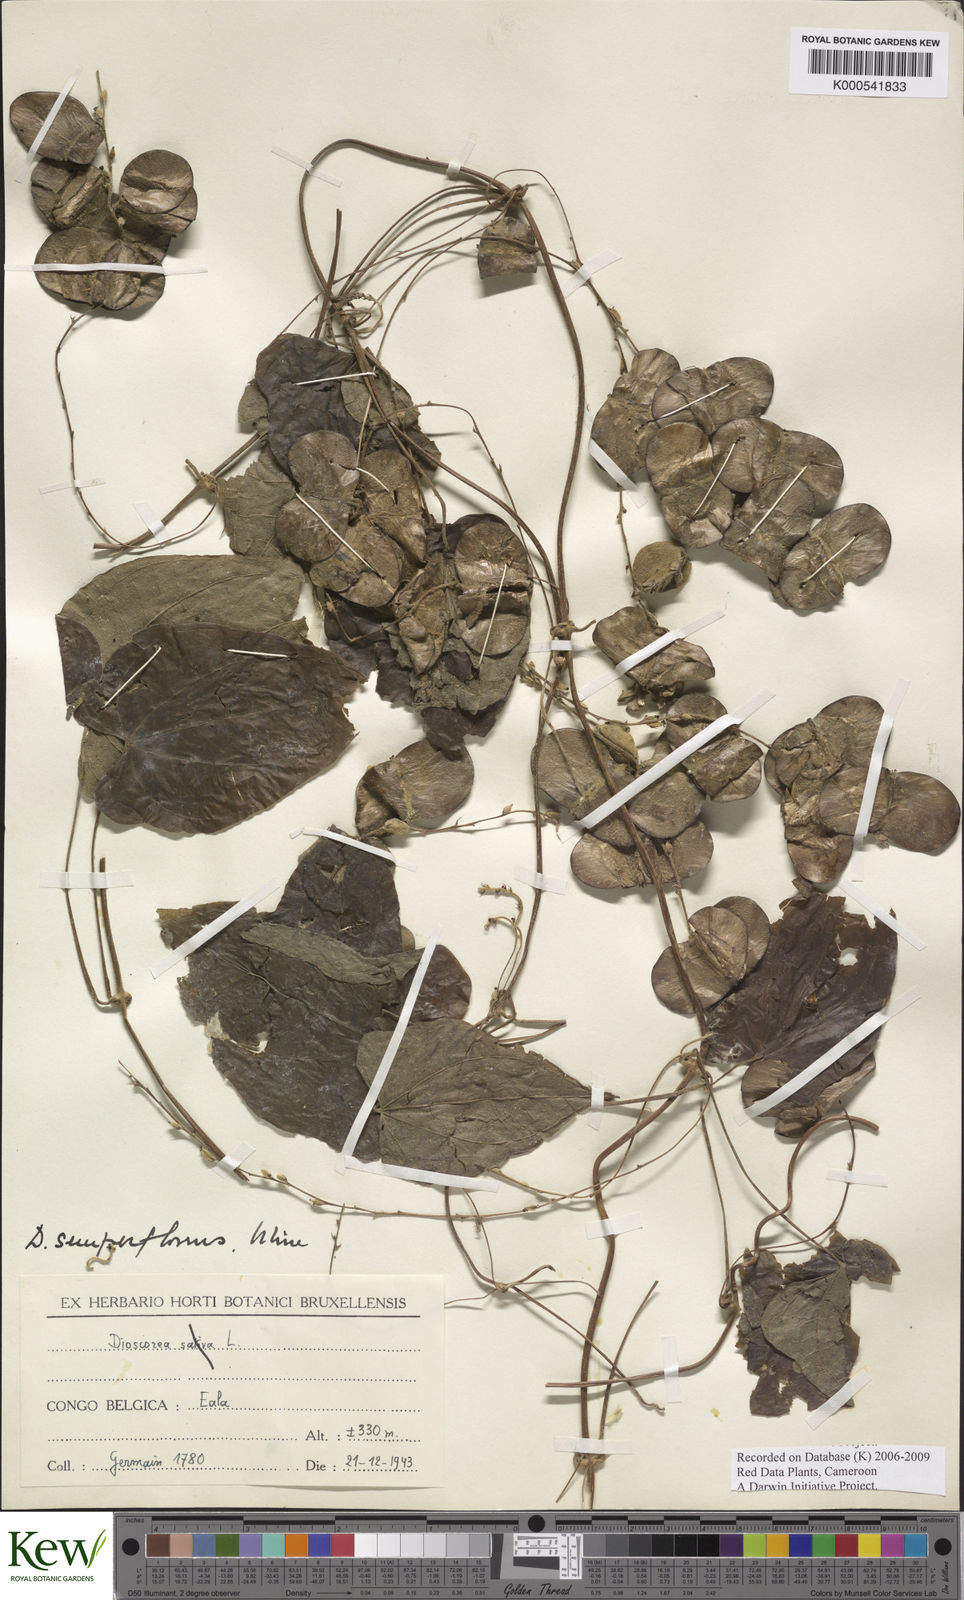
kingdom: Plantae
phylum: Tracheophyta
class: Liliopsida
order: Dioscoreales
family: Dioscoreaceae
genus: Dioscorea
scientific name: Dioscorea semperflorens
